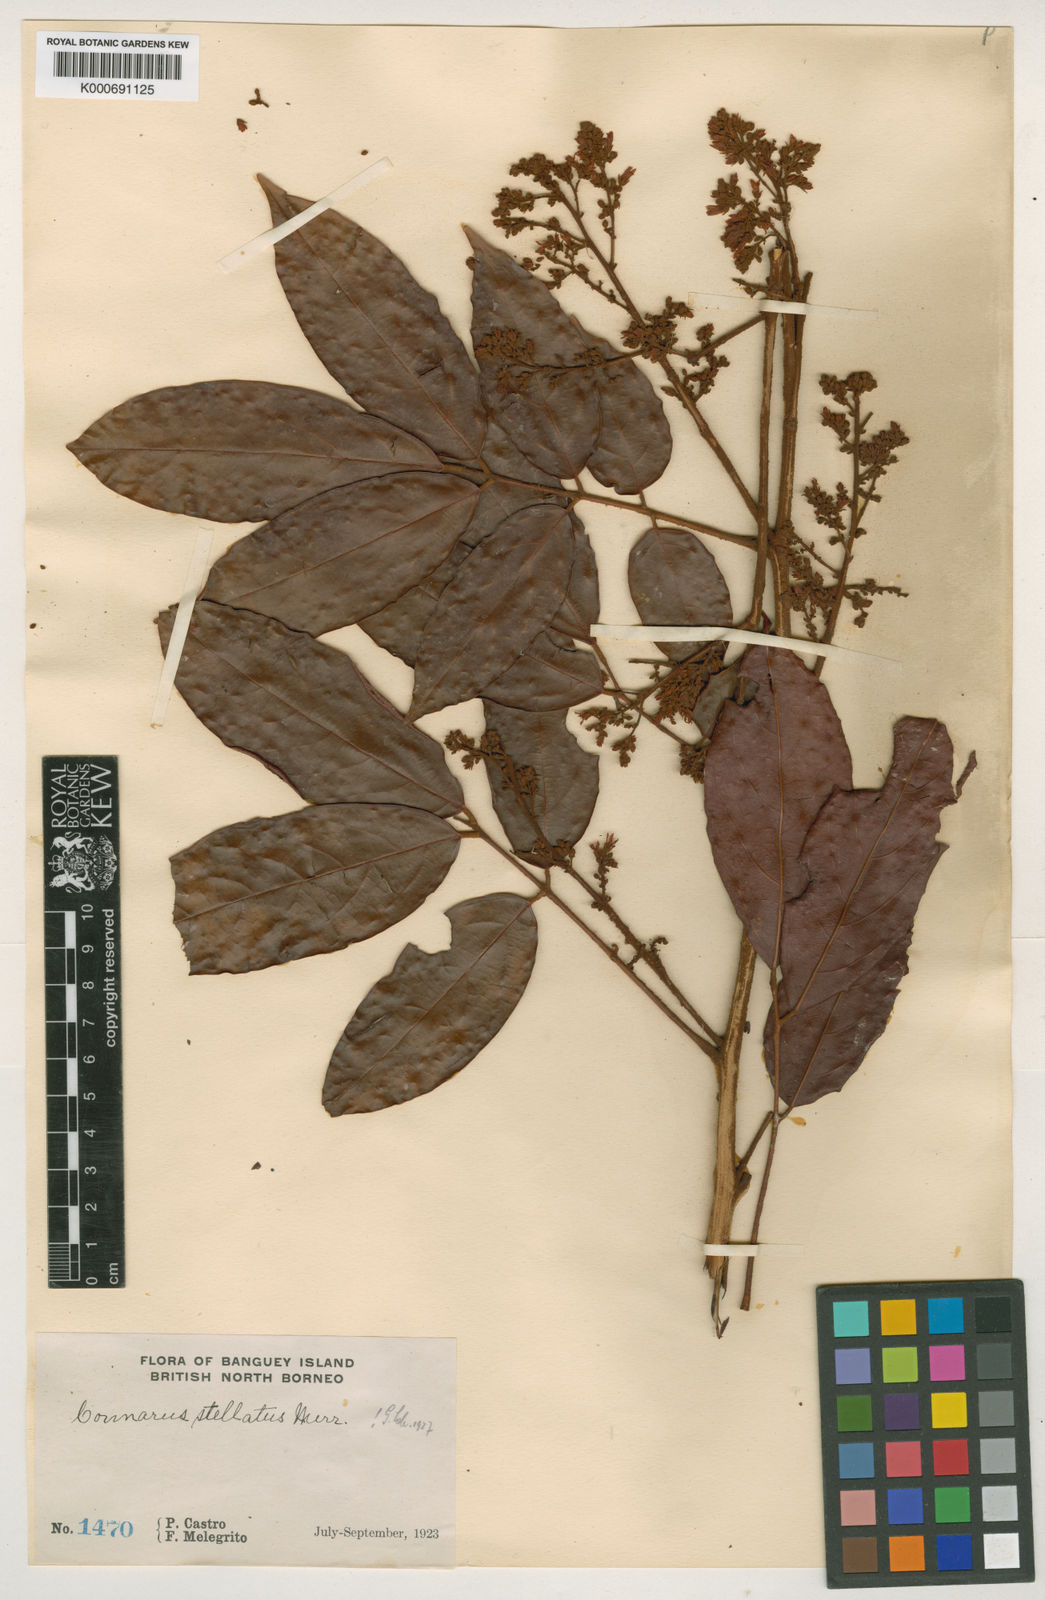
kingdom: Plantae
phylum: Tracheophyta
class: Magnoliopsida
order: Oxalidales
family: Connaraceae
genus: Connarus
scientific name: Connarus culionensis
